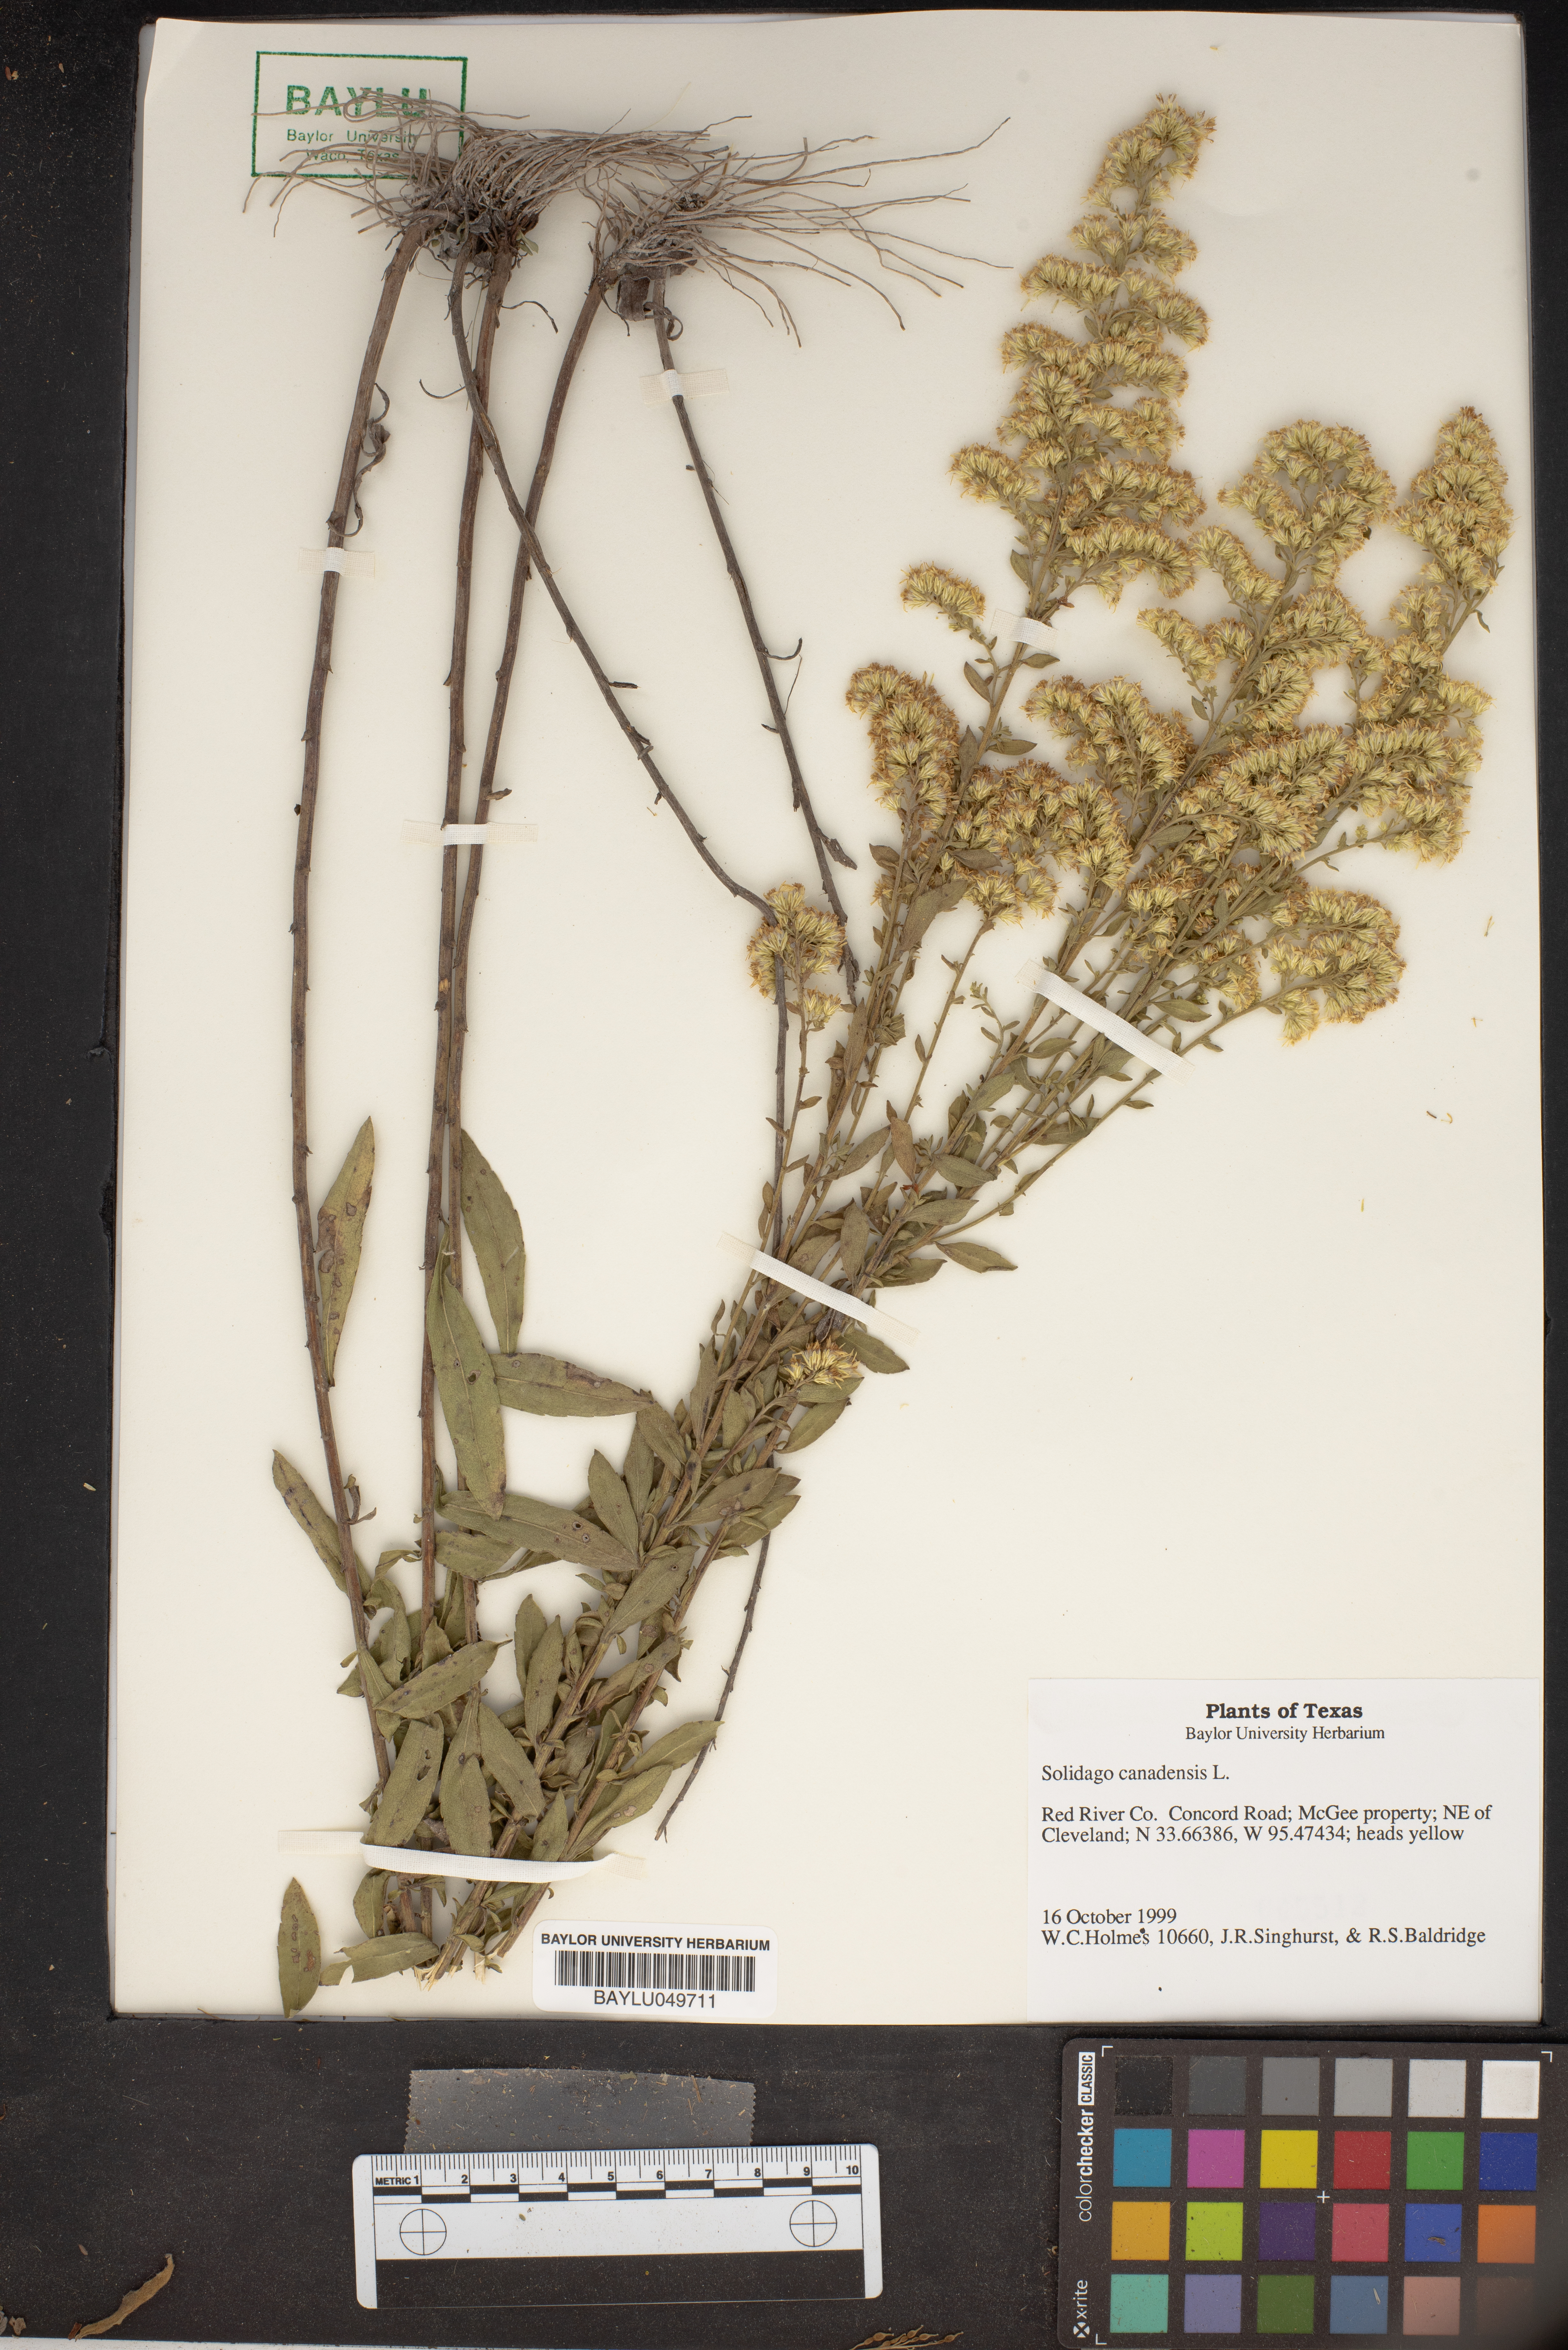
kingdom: Plantae
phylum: Tracheophyta
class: Magnoliopsida
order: Asterales
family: Asteraceae
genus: Solidago
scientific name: Solidago canadensis
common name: Canada goldenrod
